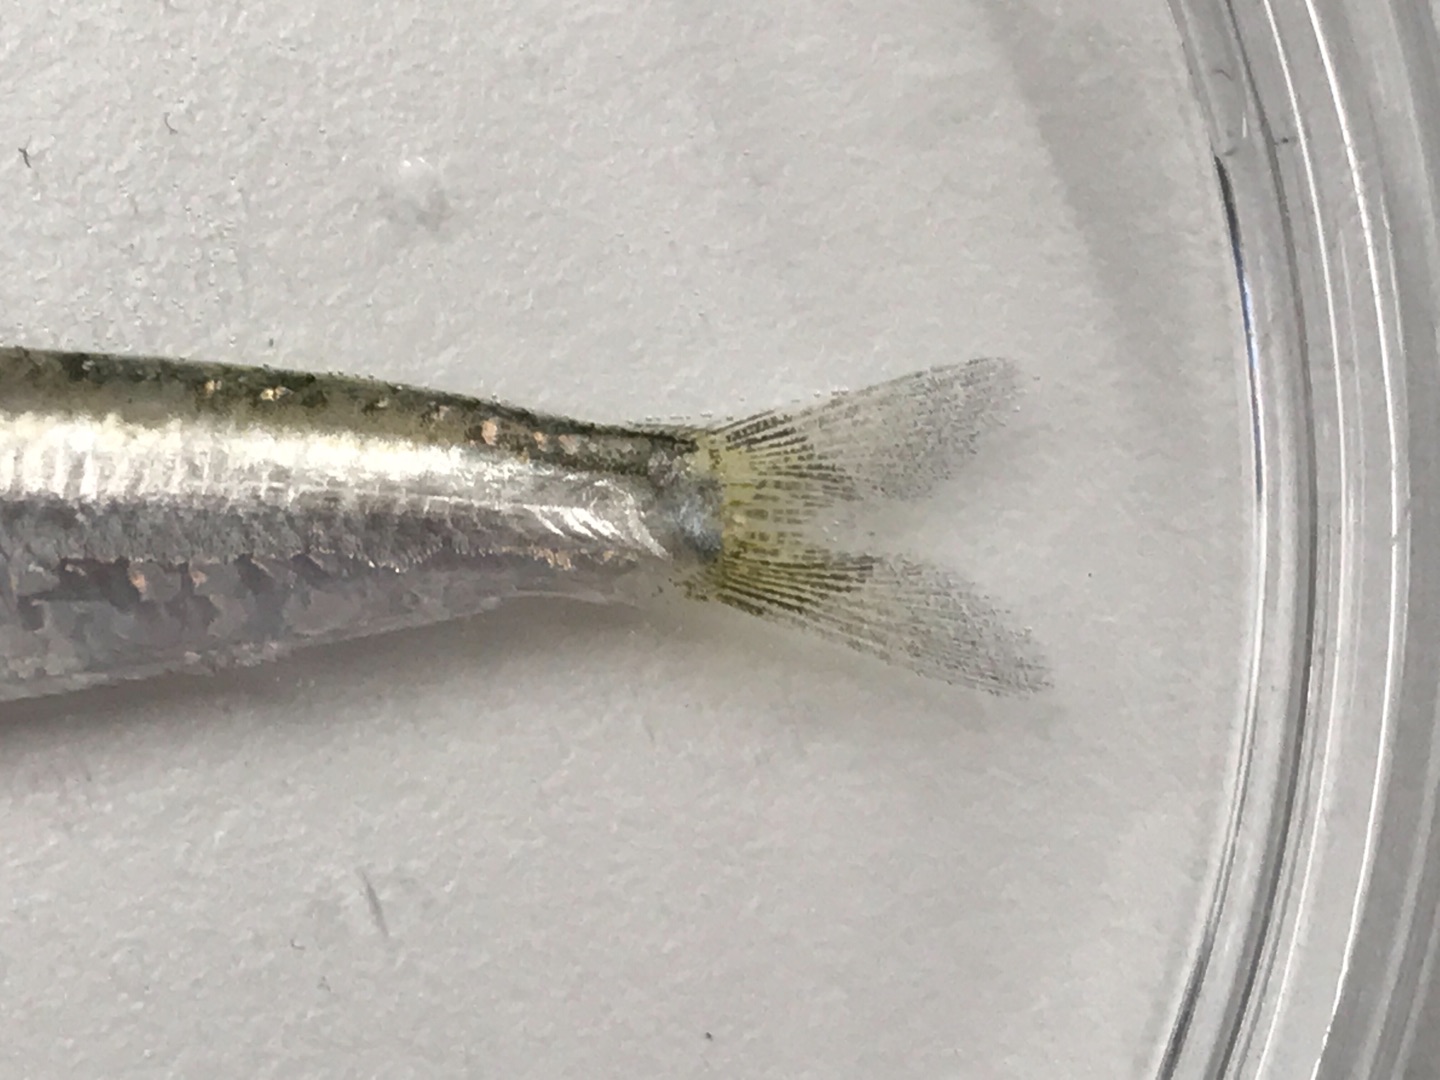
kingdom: Animalia
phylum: Chordata
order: Clupeiformes
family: Clupeidae
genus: Sardina
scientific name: Sardina pilchardus
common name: Sardin
